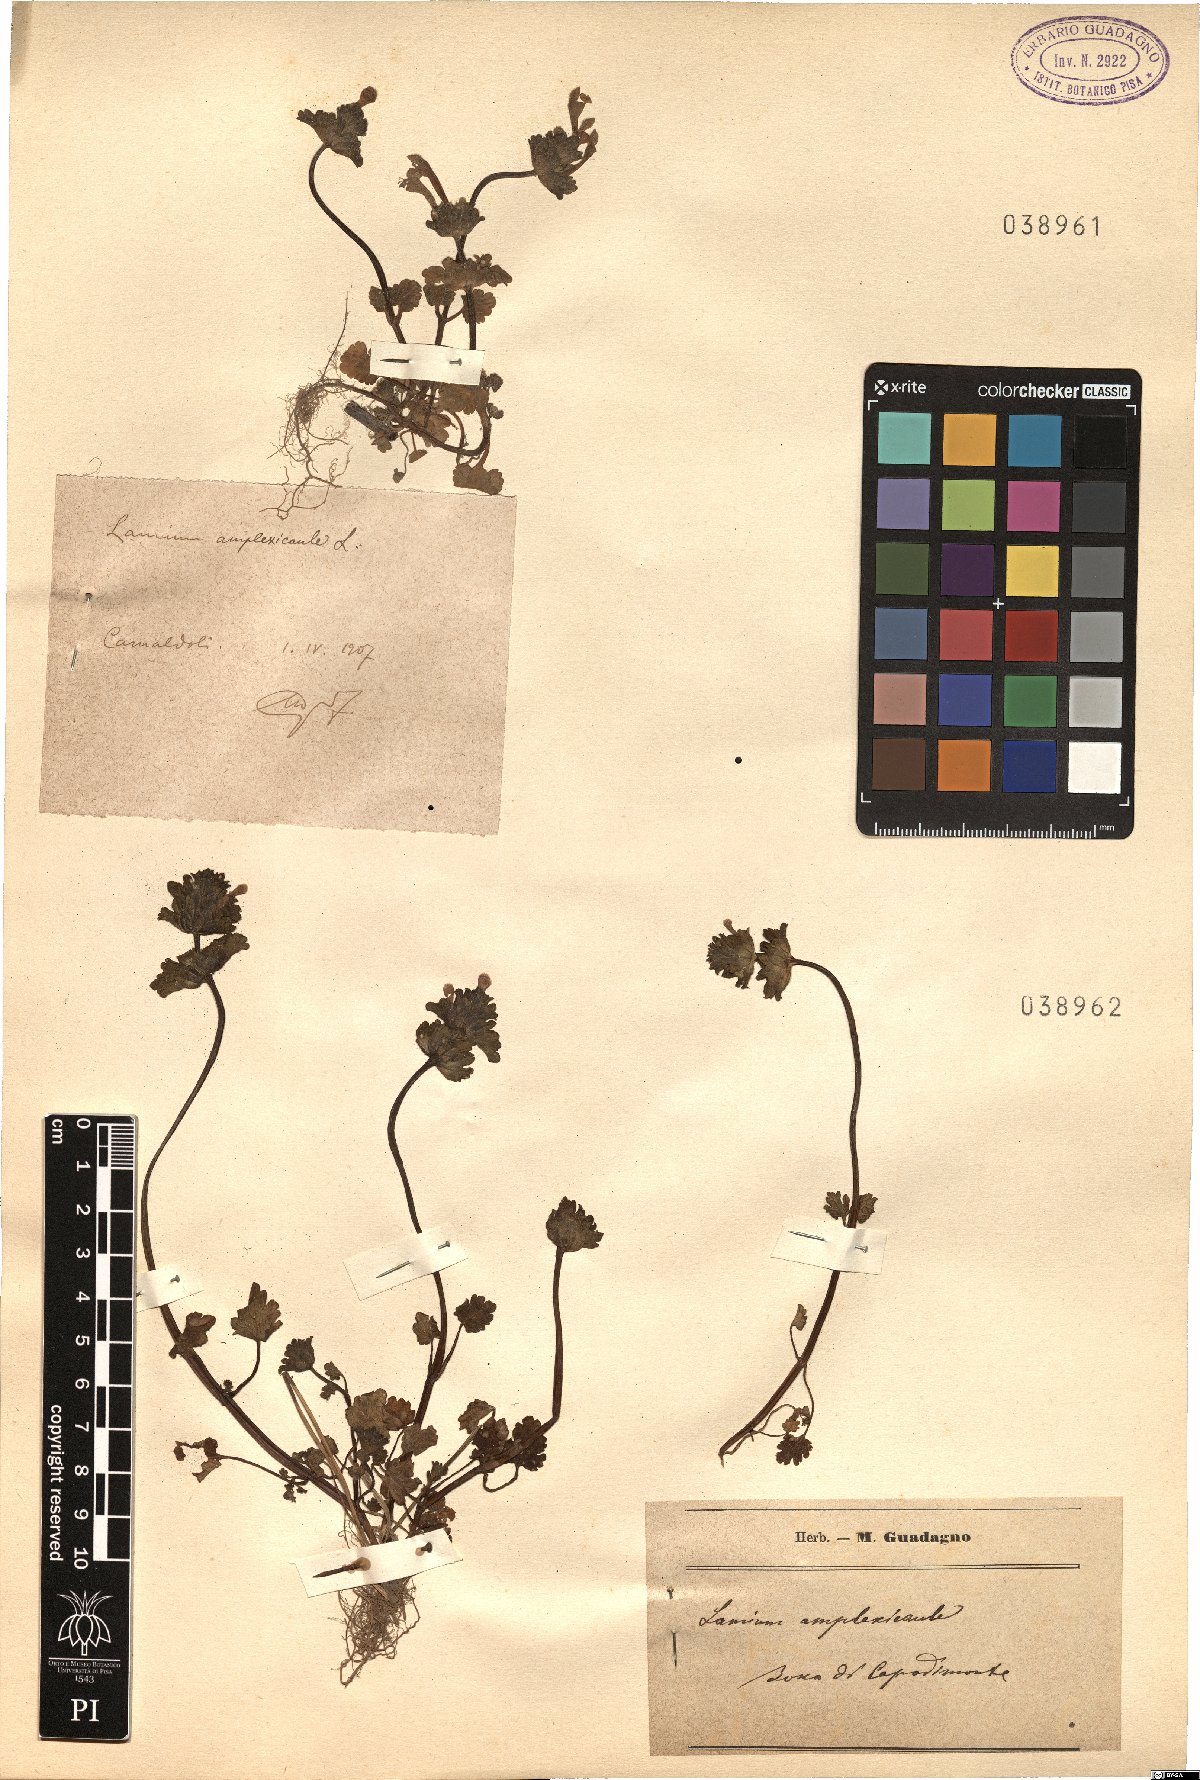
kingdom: Plantae
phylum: Tracheophyta
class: Magnoliopsida
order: Lamiales
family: Lamiaceae
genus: Lamium
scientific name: Lamium amplexicaule
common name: Henbit dead-nettle
